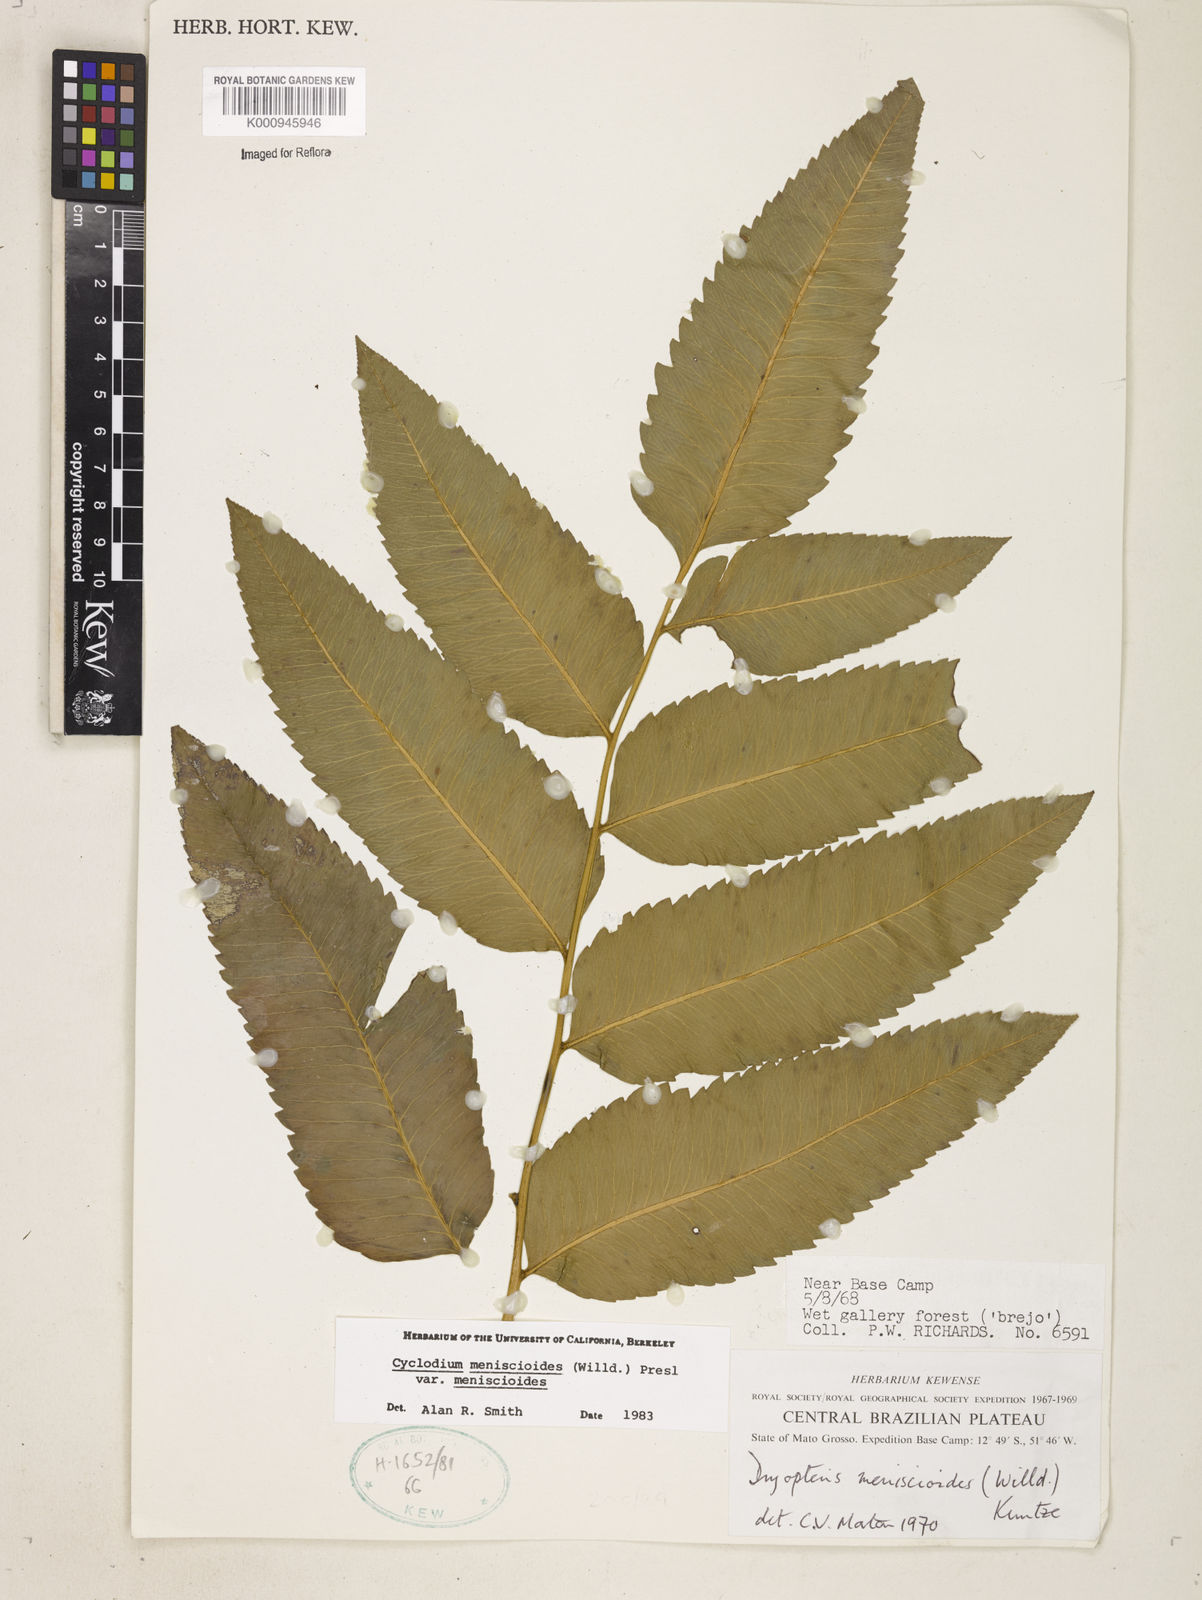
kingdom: Plantae
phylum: Tracheophyta
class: Polypodiopsida
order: Polypodiales
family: Dryopteridaceae
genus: Cyclodium
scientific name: Cyclodium meniscioides
